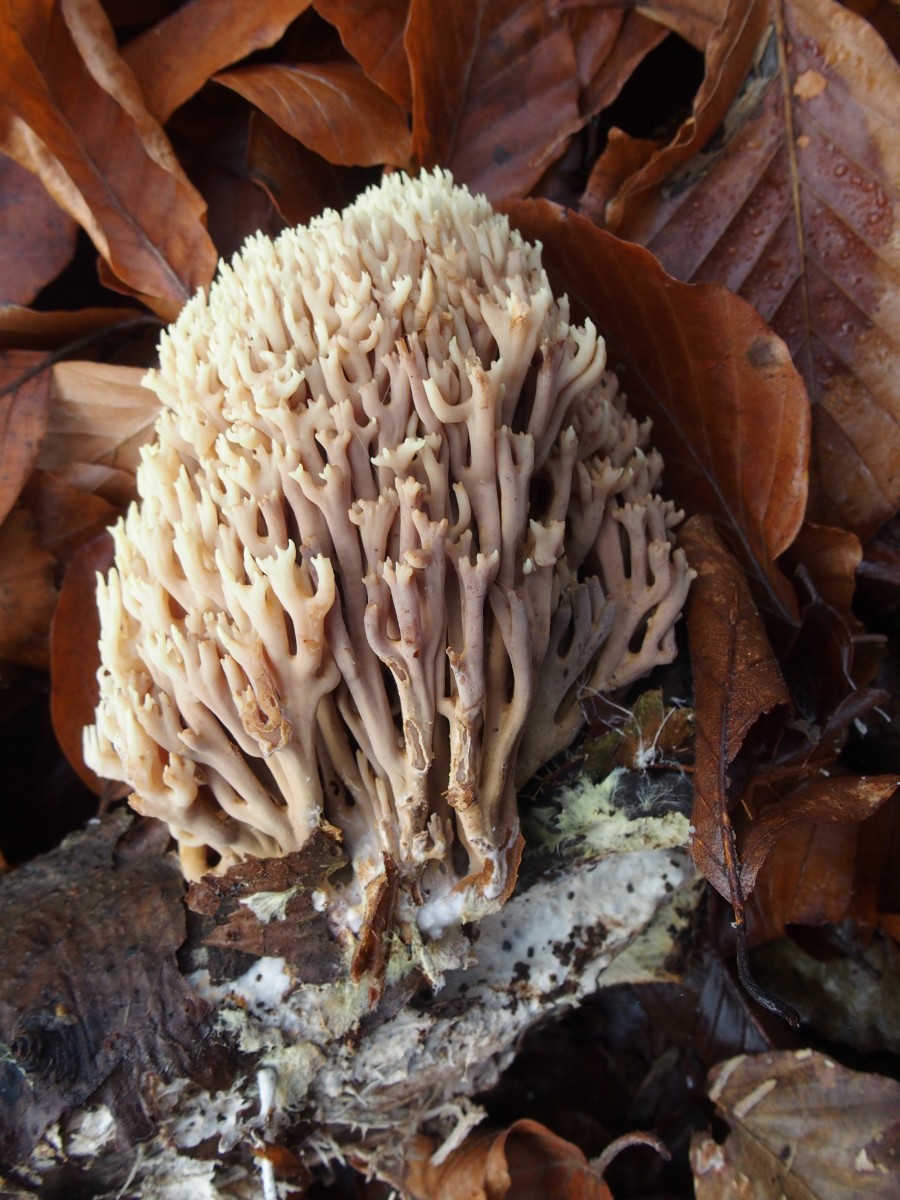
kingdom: Fungi
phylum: Basidiomycota
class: Agaricomycetes
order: Gomphales
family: Gomphaceae
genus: Ramaria
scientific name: Ramaria stricta
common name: rank koralsvamp
